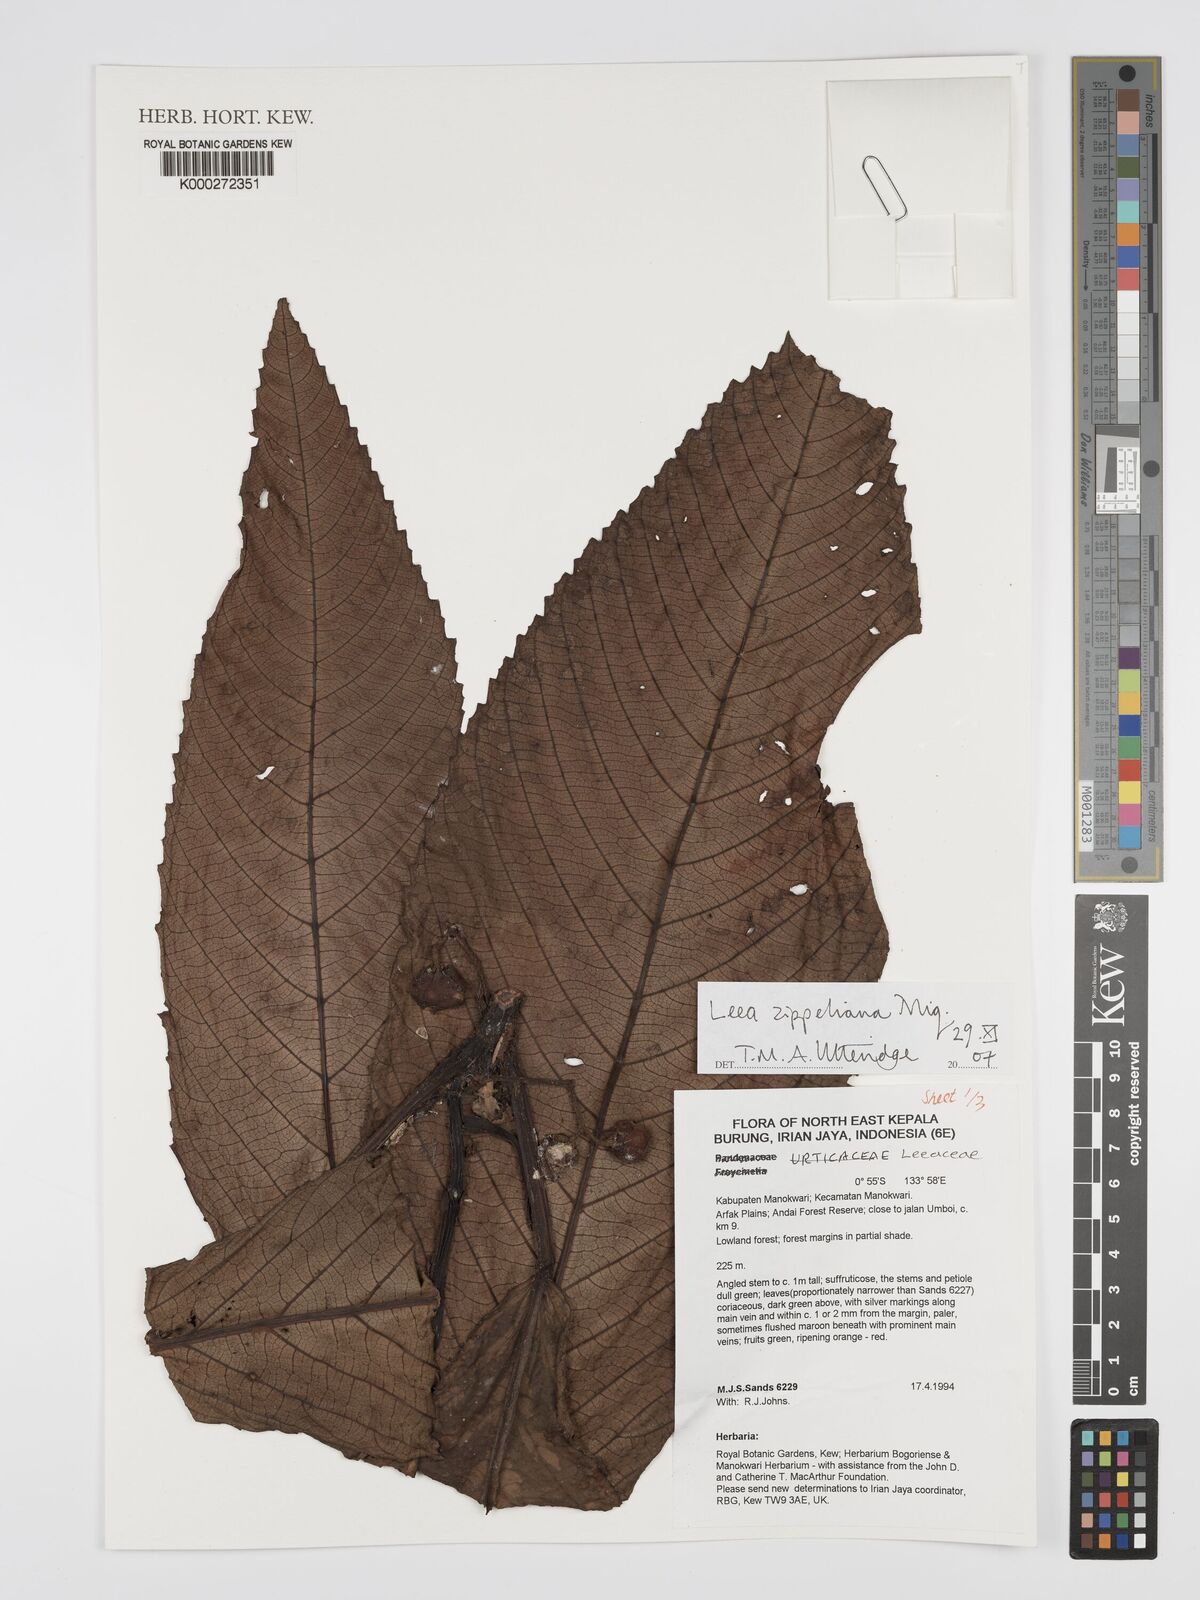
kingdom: Plantae
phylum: Tracheophyta
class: Magnoliopsida
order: Vitales
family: Vitaceae
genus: Leea
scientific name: Leea zippeliana
